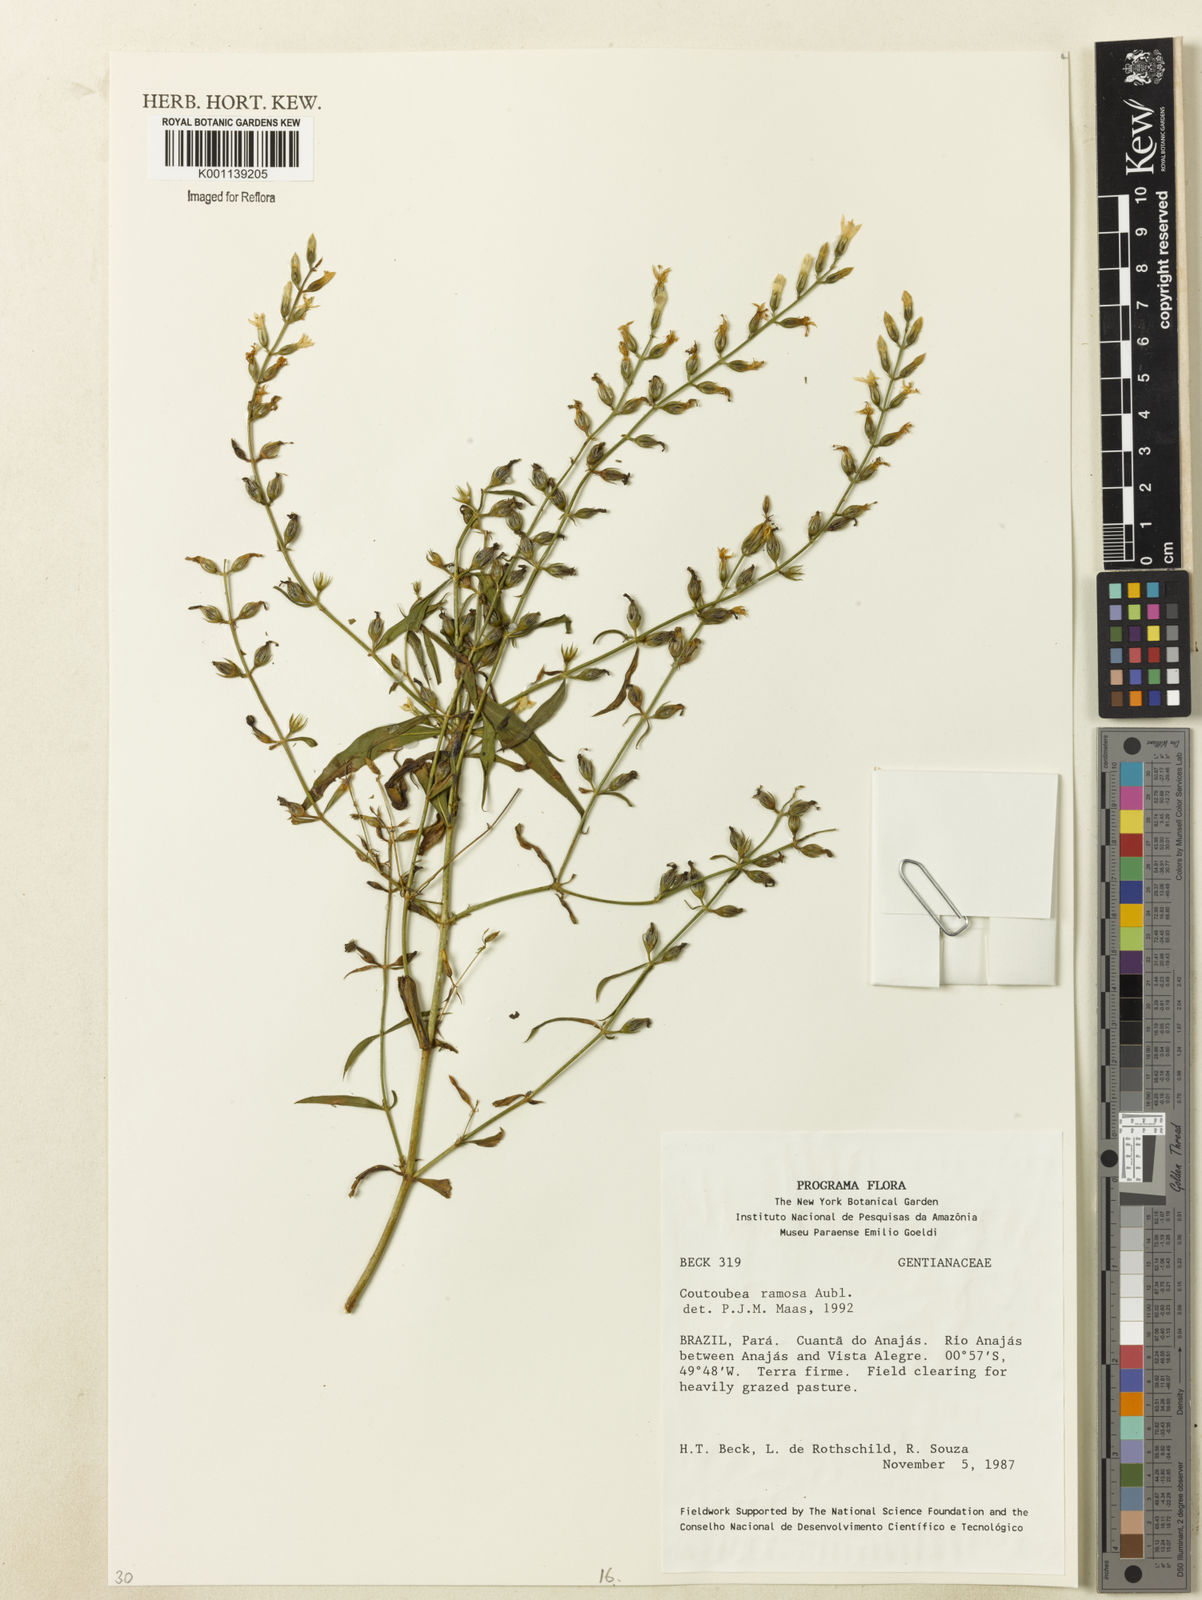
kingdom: Plantae
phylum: Tracheophyta
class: Magnoliopsida
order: Gentianales
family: Gentianaceae
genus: Coutoubea
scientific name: Coutoubea ramosa
